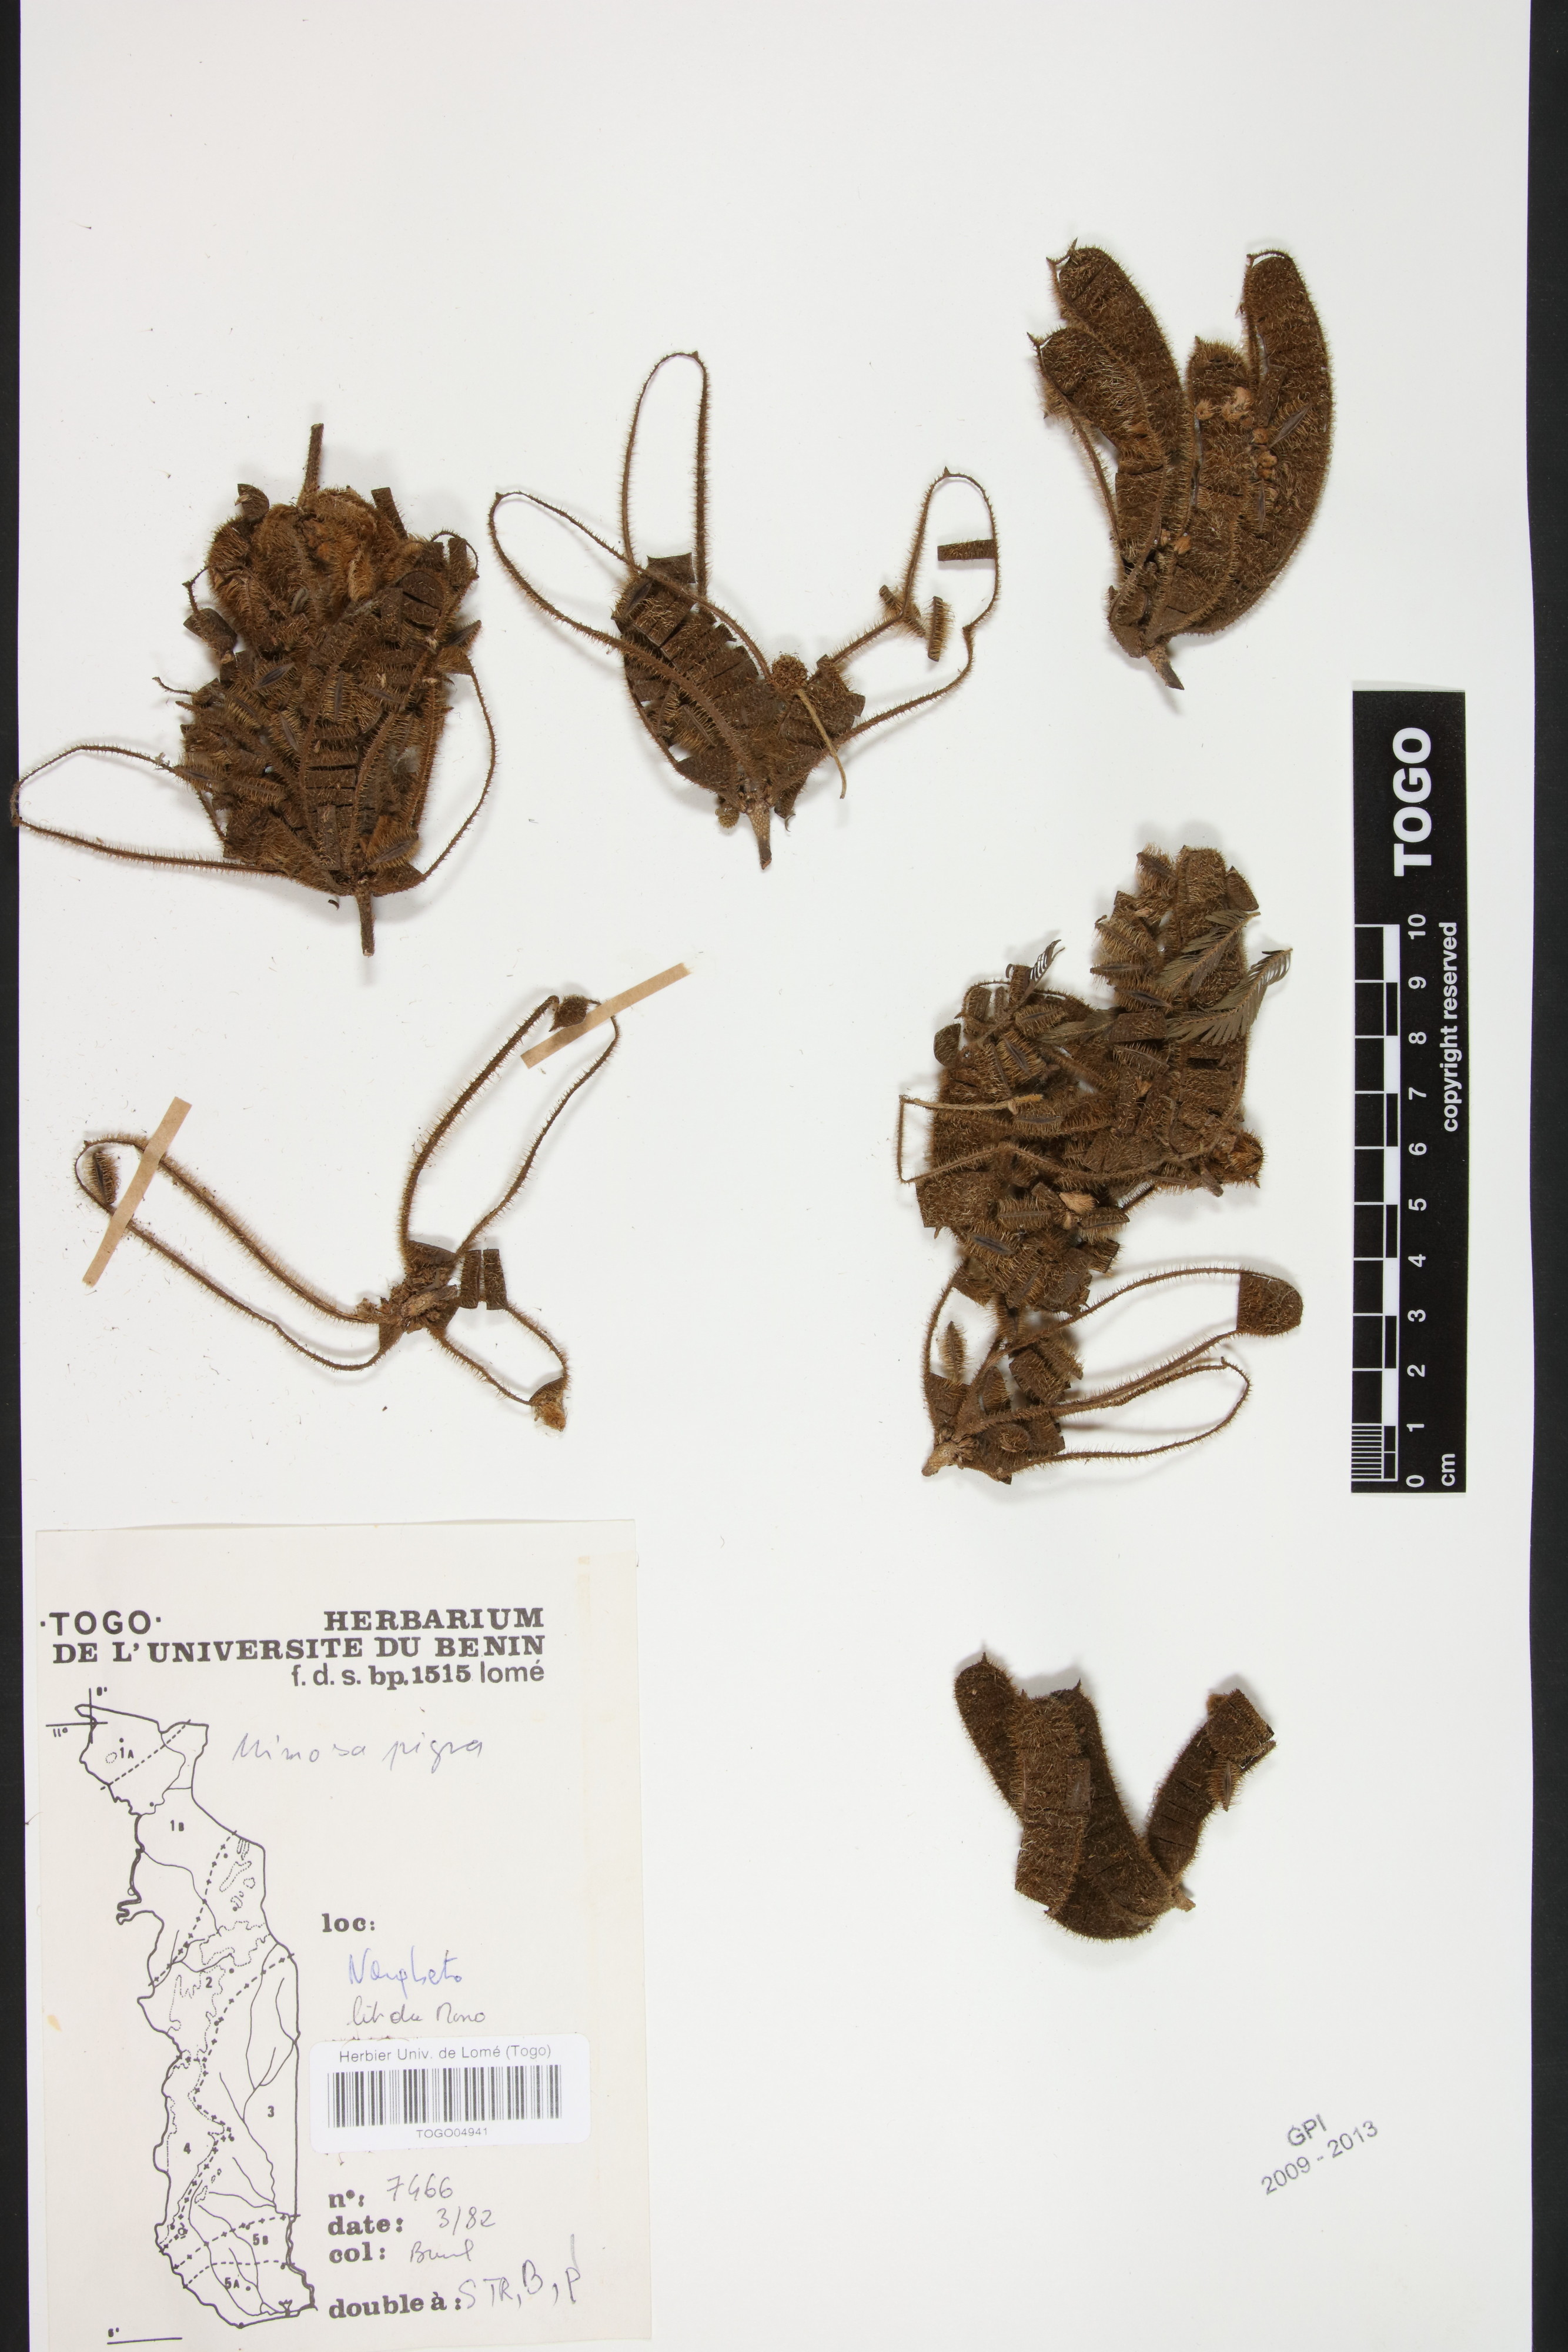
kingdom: Plantae
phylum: Tracheophyta
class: Magnoliopsida
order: Fabales
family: Fabaceae
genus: Mimosa
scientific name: Mimosa pigra
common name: Black mimosa
